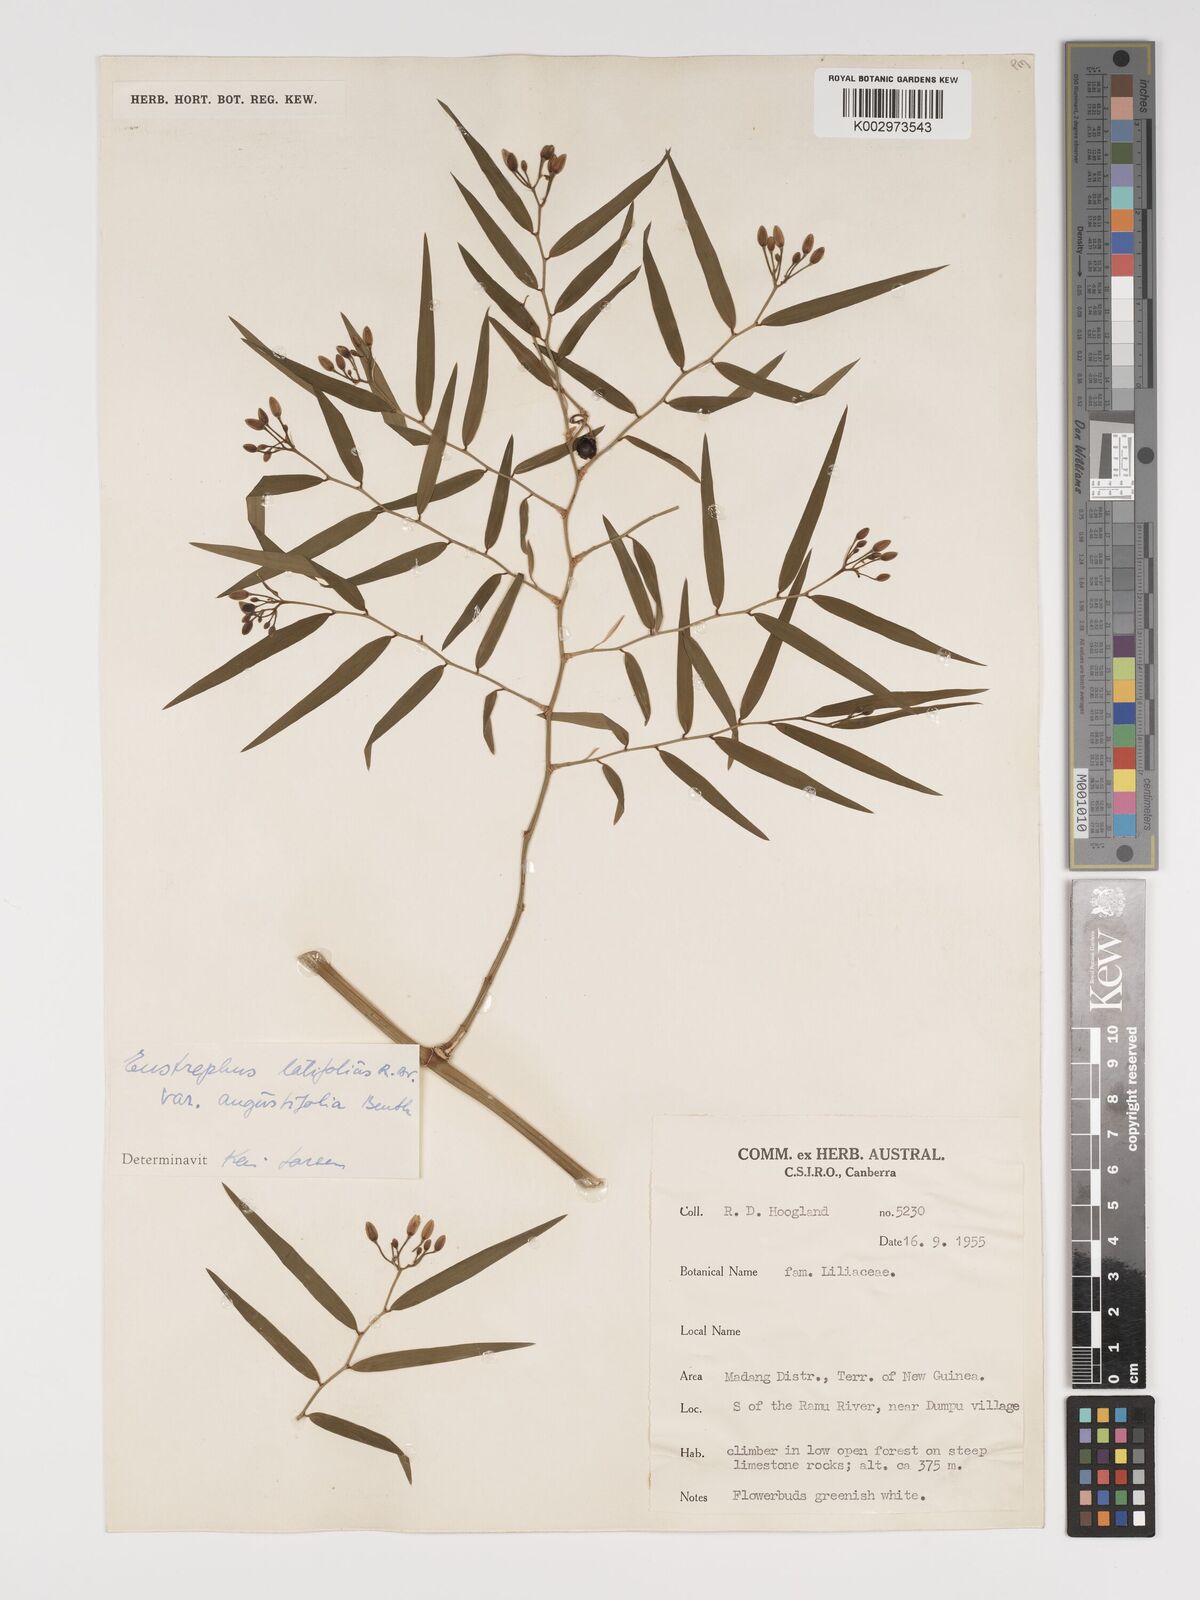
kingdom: Plantae
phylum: Tracheophyta
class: Liliopsida
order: Asparagales
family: Asparagaceae
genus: Eustrephus
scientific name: Eustrephus latifolius
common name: Orangevine
